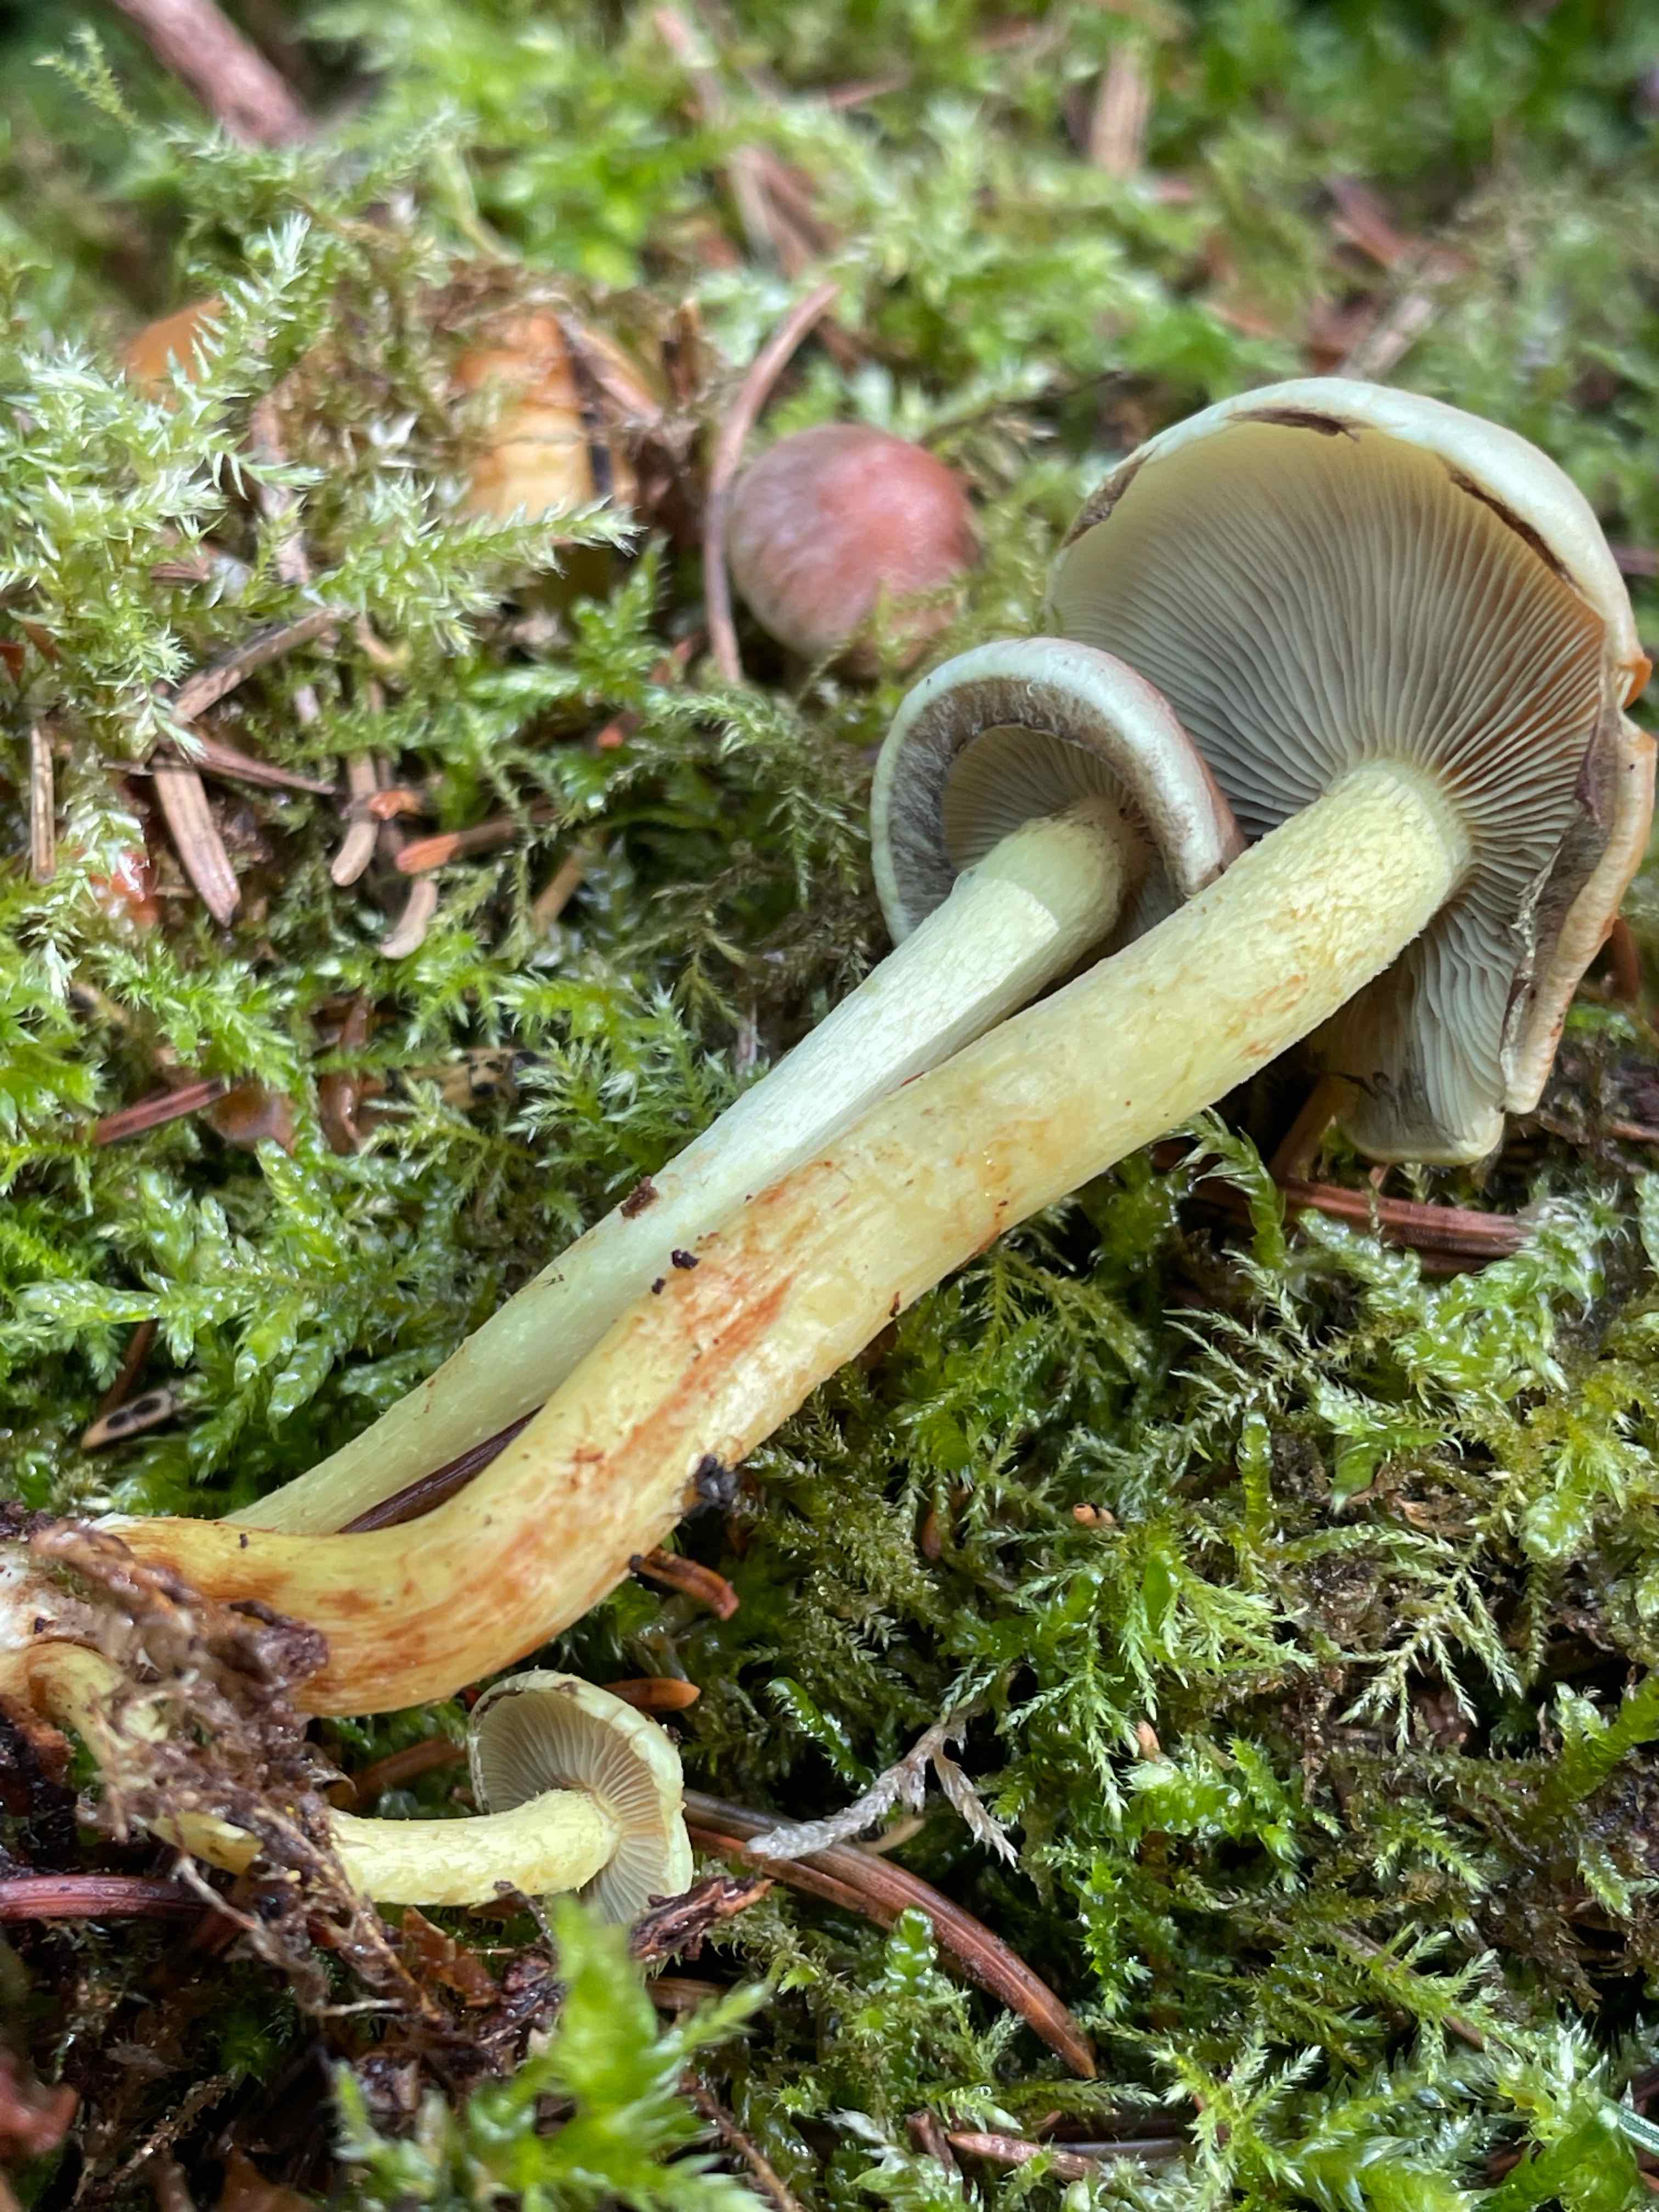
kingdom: Fungi
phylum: Basidiomycota
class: Agaricomycetes
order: Agaricales
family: Strophariaceae
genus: Hypholoma
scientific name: Hypholoma
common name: svovlhat
